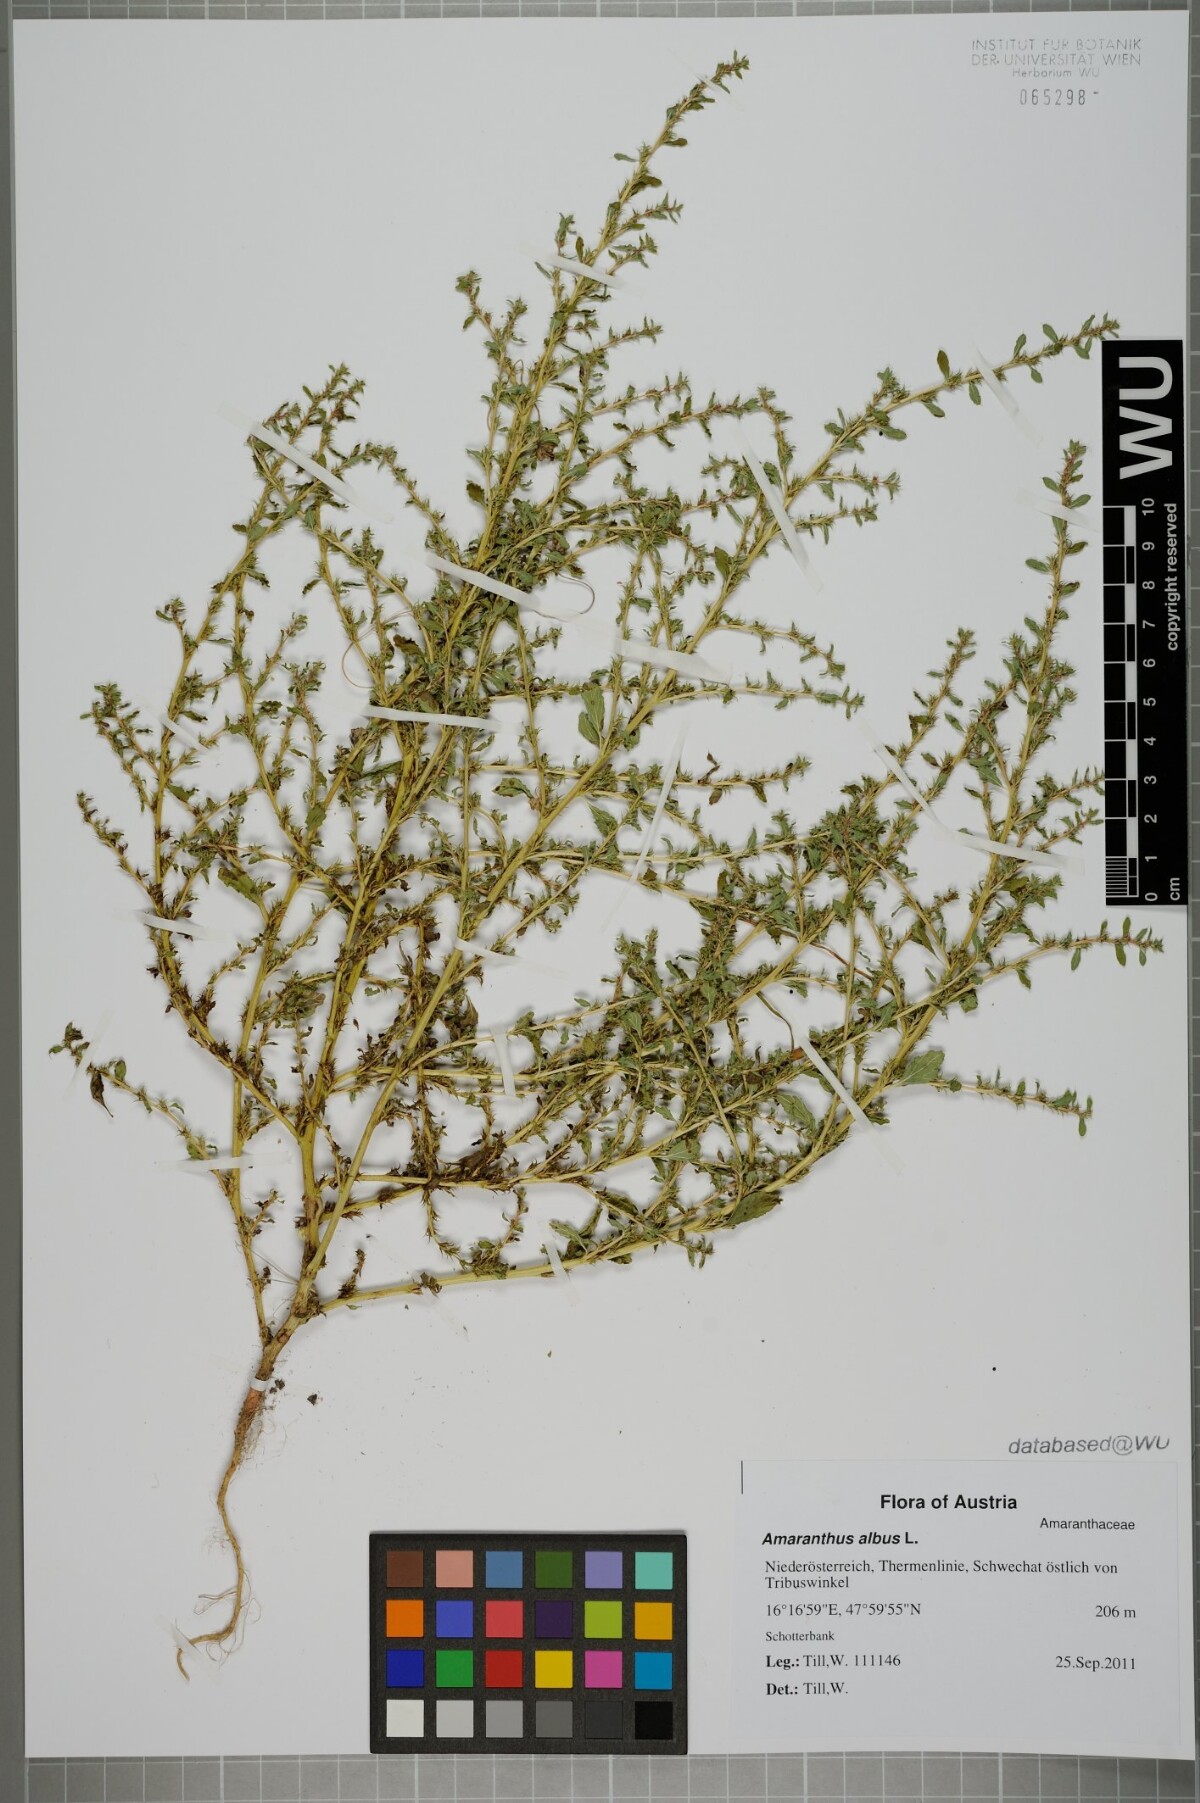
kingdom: Plantae
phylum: Tracheophyta
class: Magnoliopsida
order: Caryophyllales
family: Amaranthaceae
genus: Amaranthus
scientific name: Amaranthus albus
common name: White pigweed
